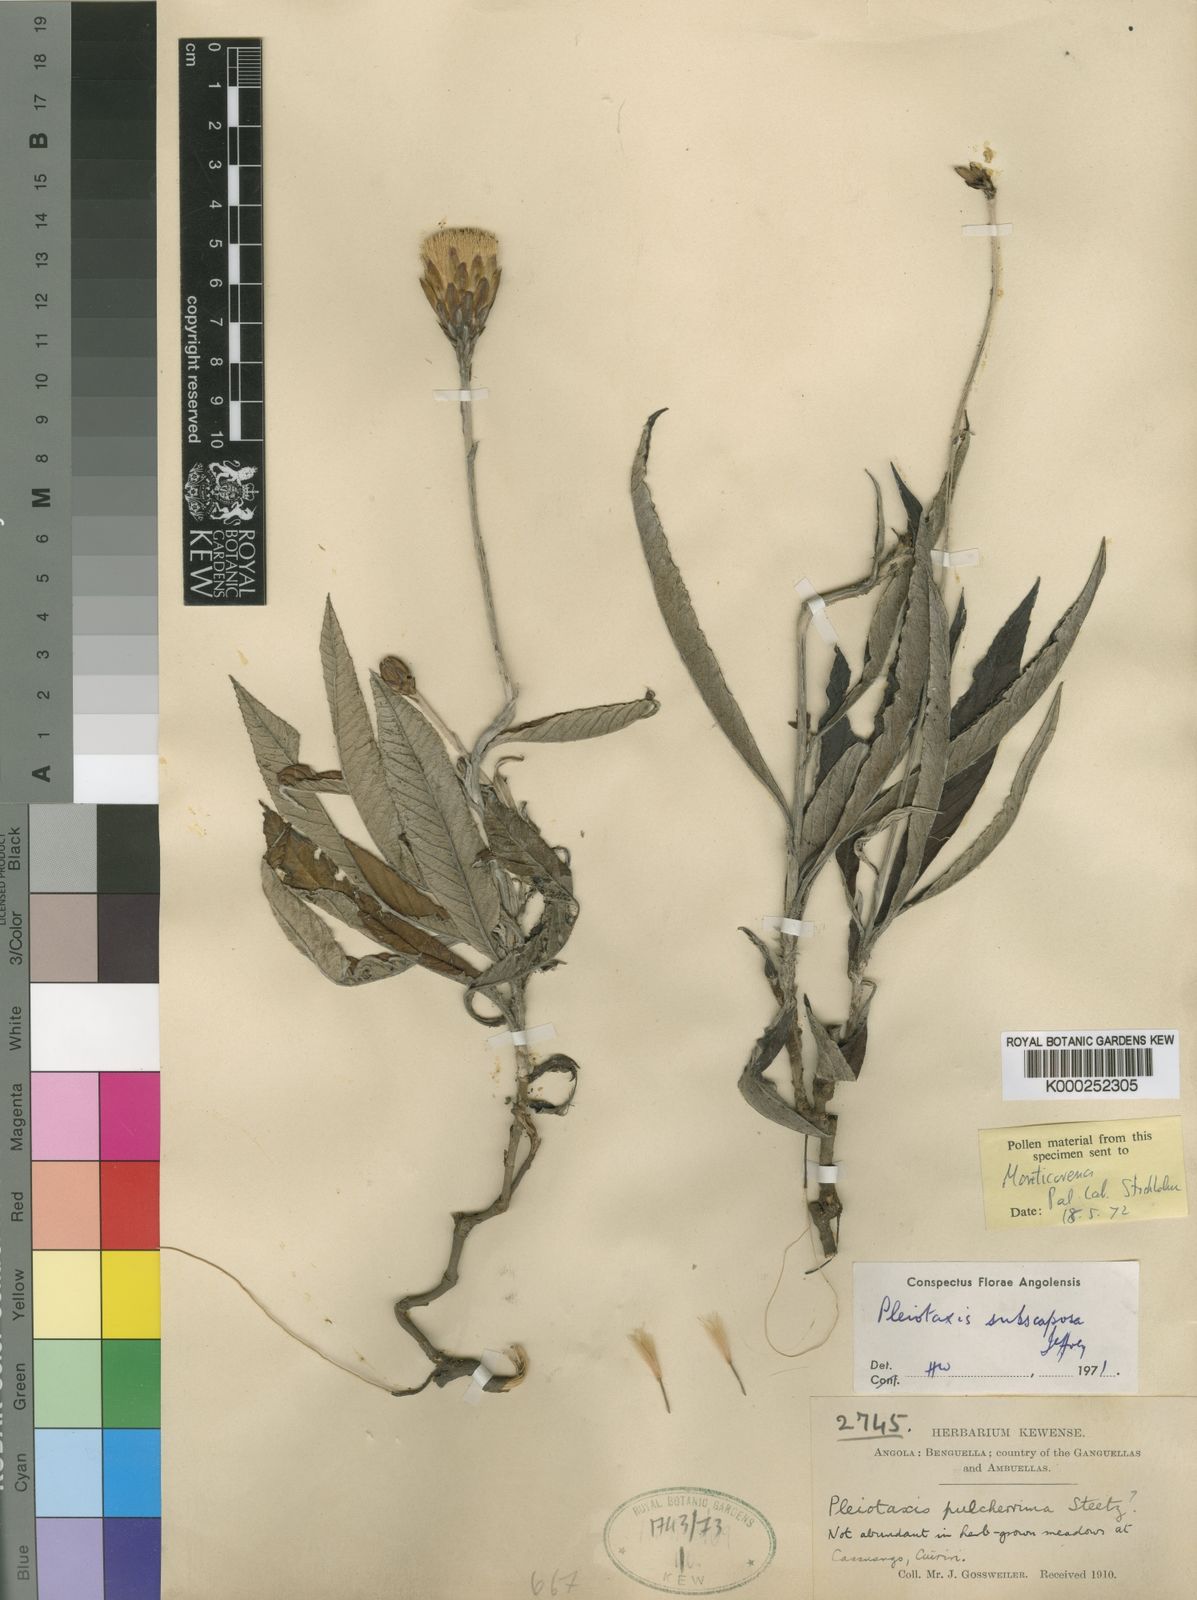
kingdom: Plantae
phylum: Tracheophyta
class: Magnoliopsida
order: Asterales
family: Asteraceae
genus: Pleiotaxis
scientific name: Pleiotaxis subscaposa
